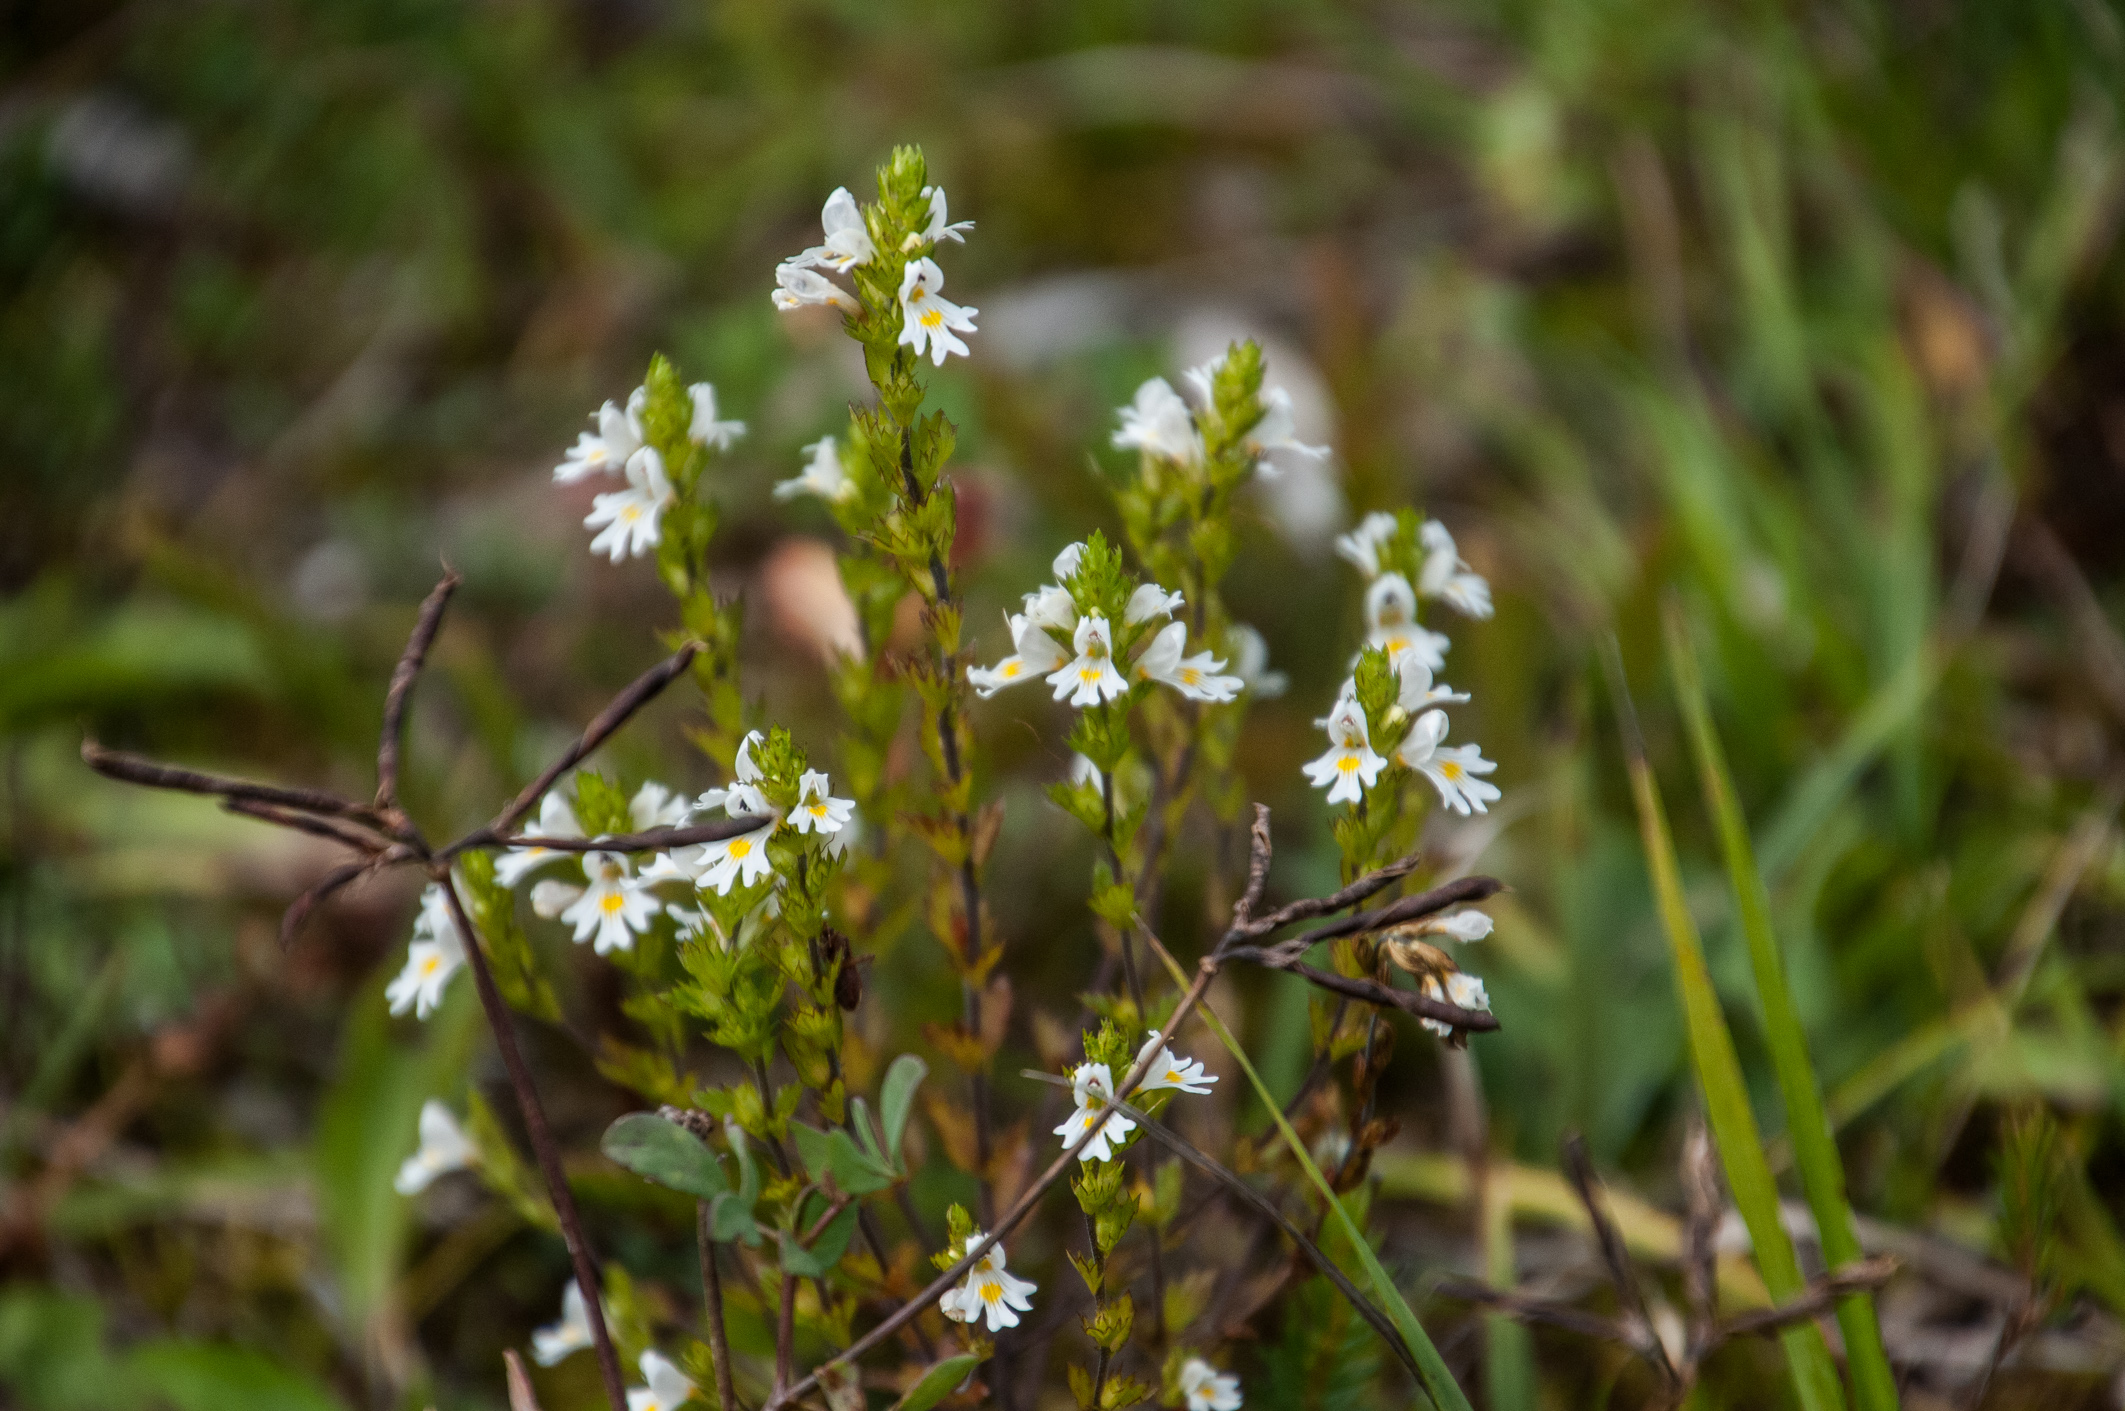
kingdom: Plantae
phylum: Tracheophyta
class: Magnoliopsida
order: Lamiales
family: Orobanchaceae
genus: Euphrasia
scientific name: Euphrasia picta
